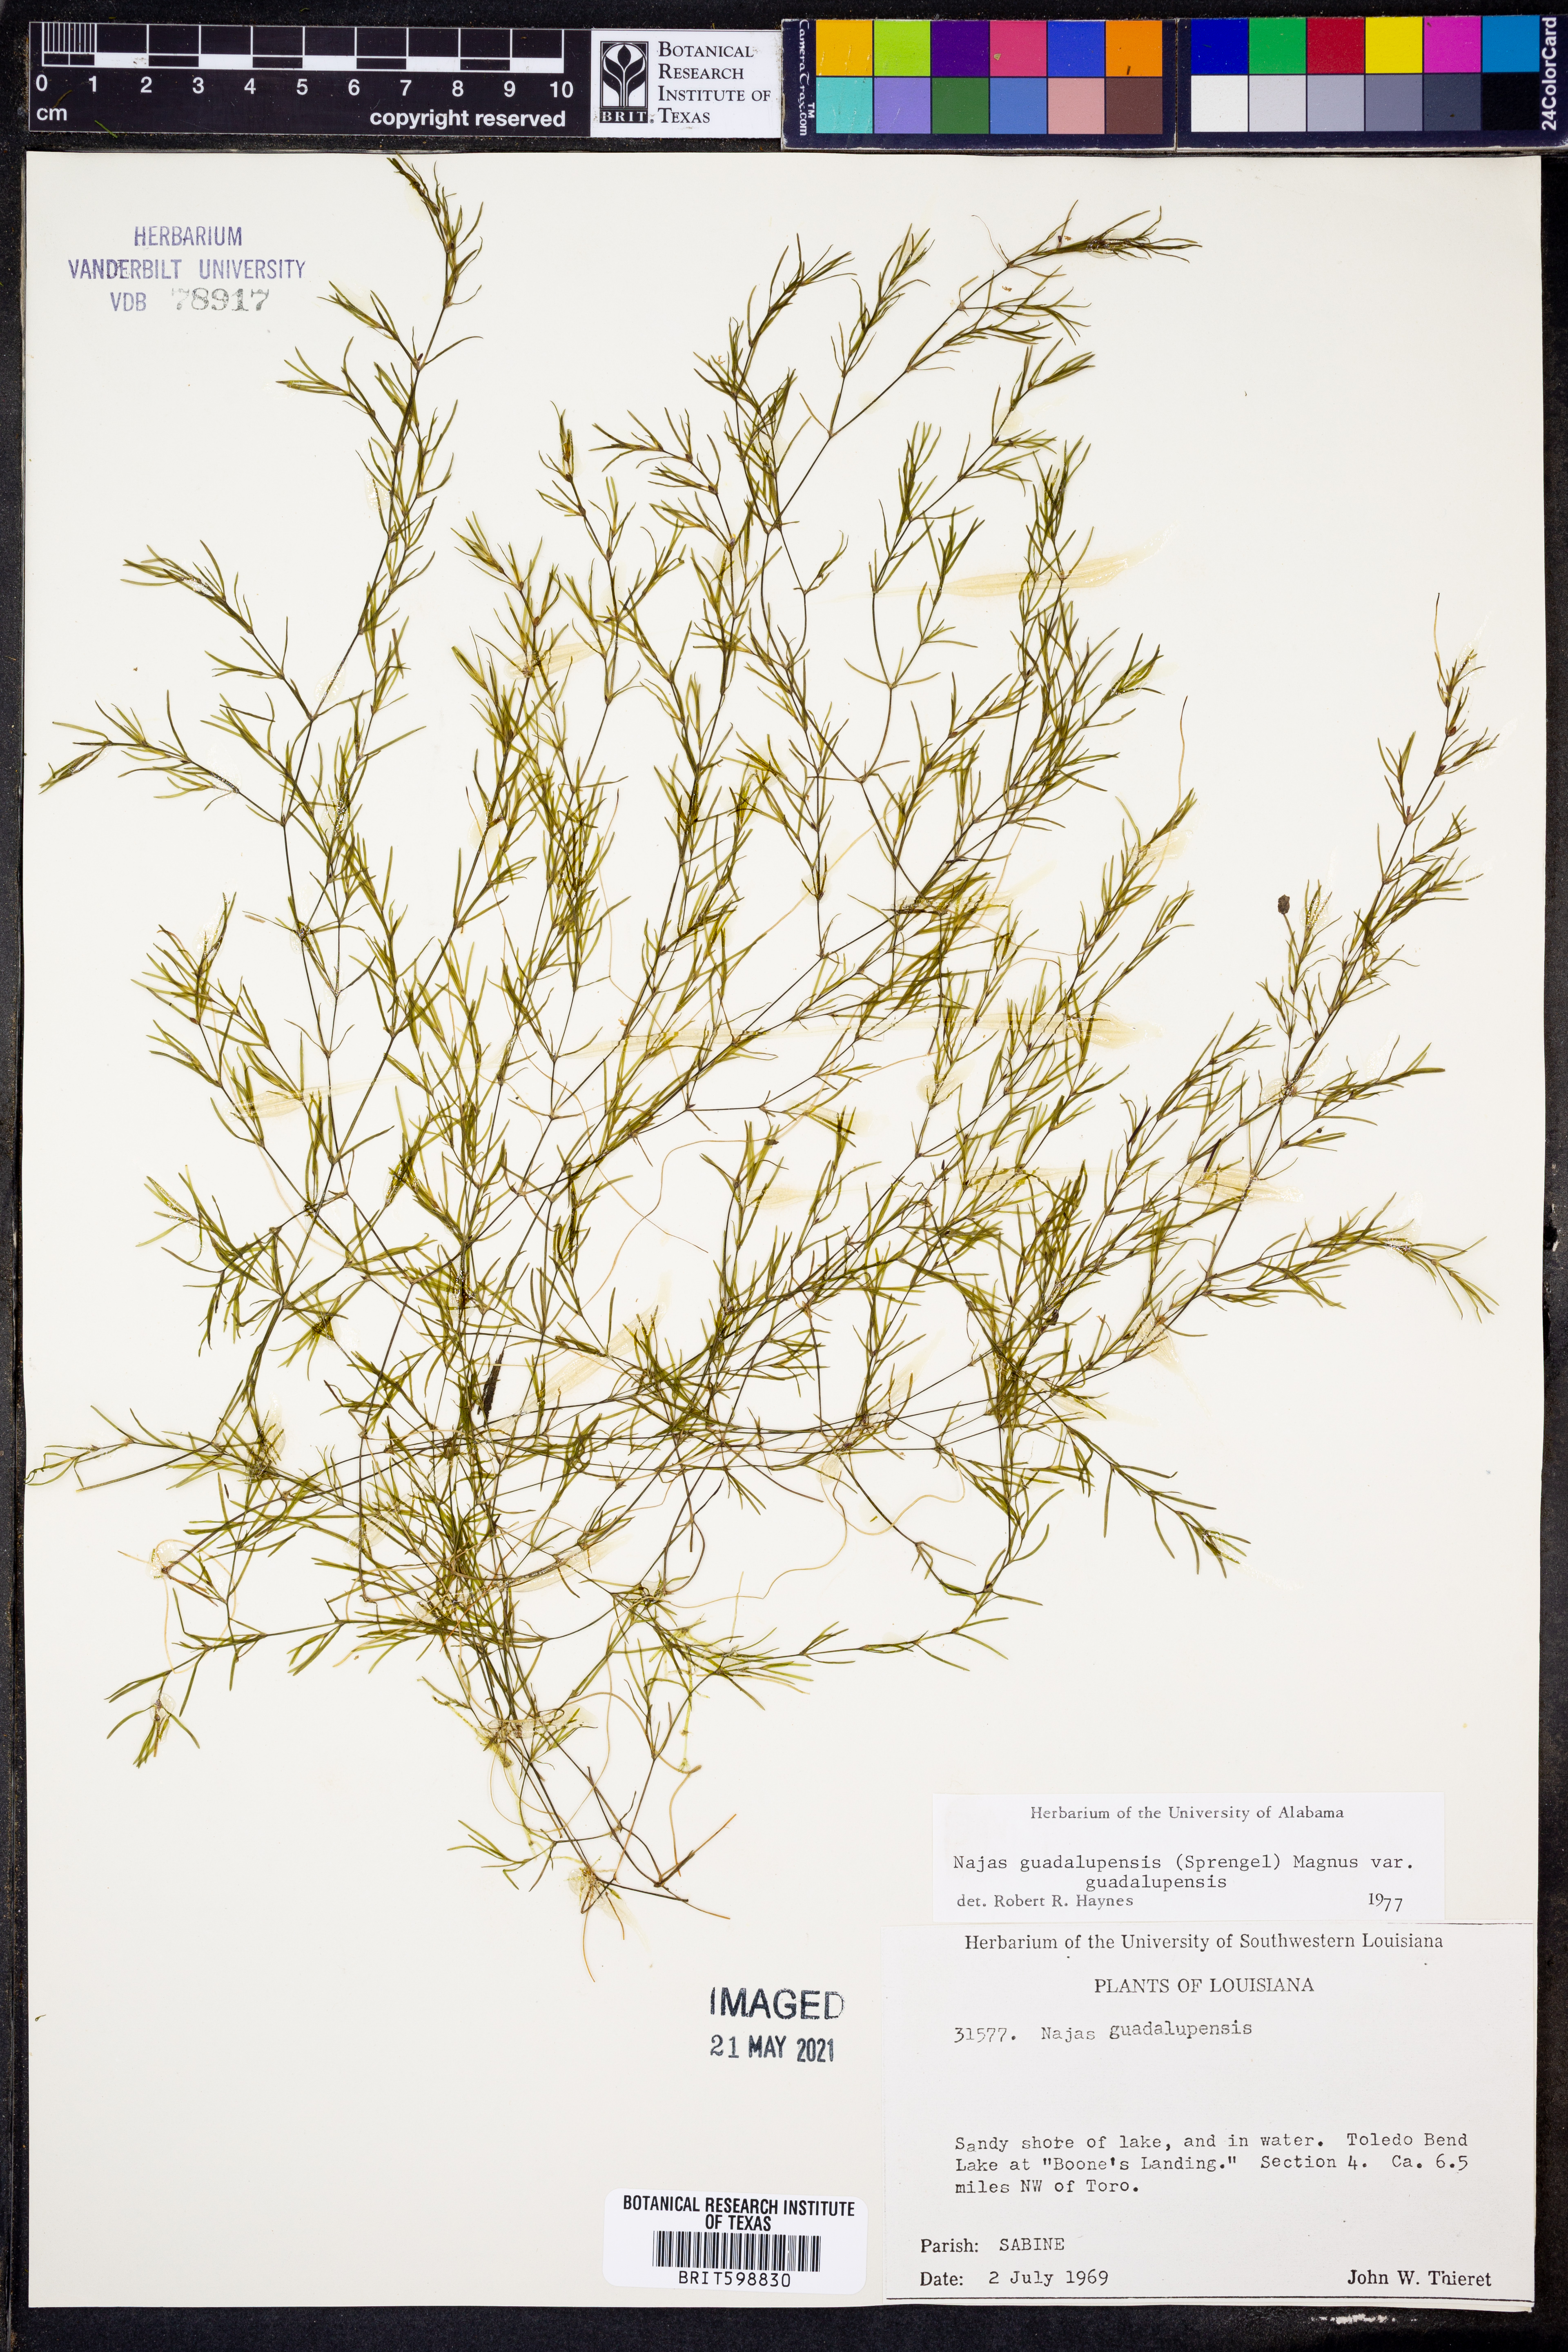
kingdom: Plantae
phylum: Tracheophyta
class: Liliopsida
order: Alismatales
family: Hydrocharitaceae
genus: Najas
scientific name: Najas guadalupensis
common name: Southern naiad
